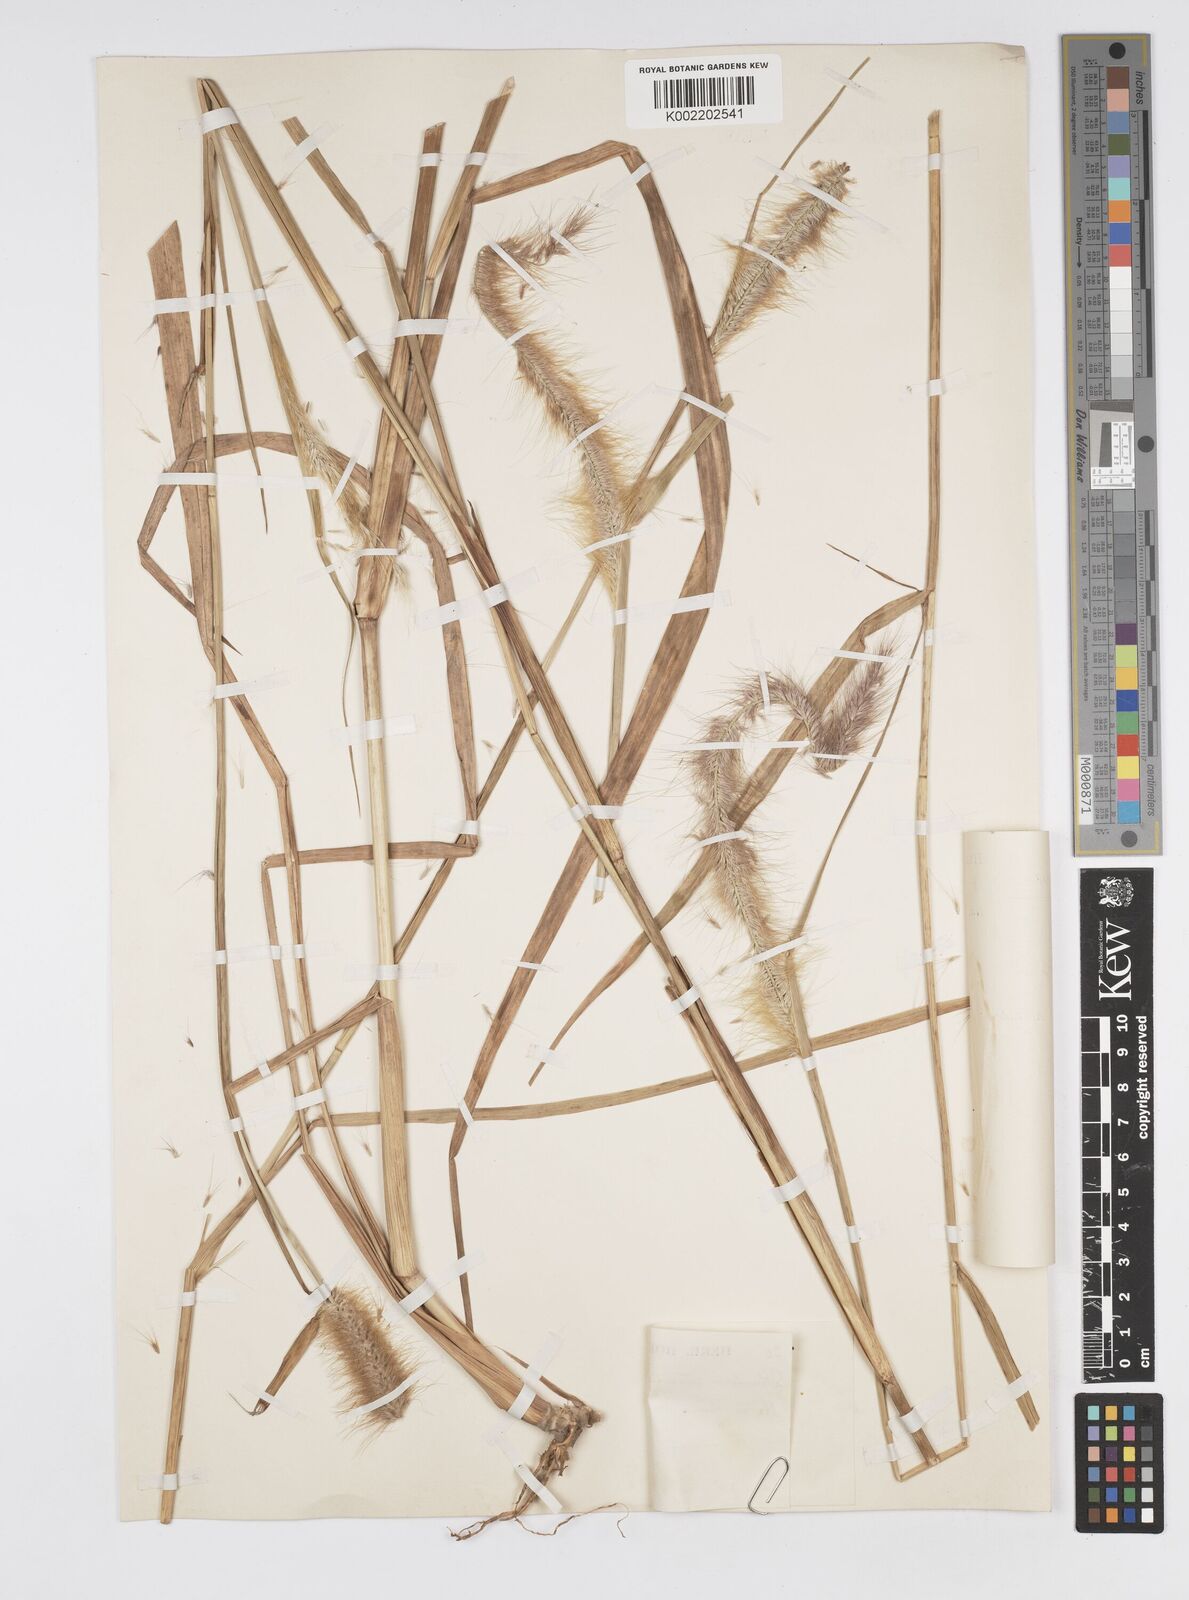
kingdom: Plantae
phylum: Tracheophyta
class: Liliopsida
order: Poales
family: Poaceae
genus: Setaria
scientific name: Setaria parviflora
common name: Knotroot bristle-grass
